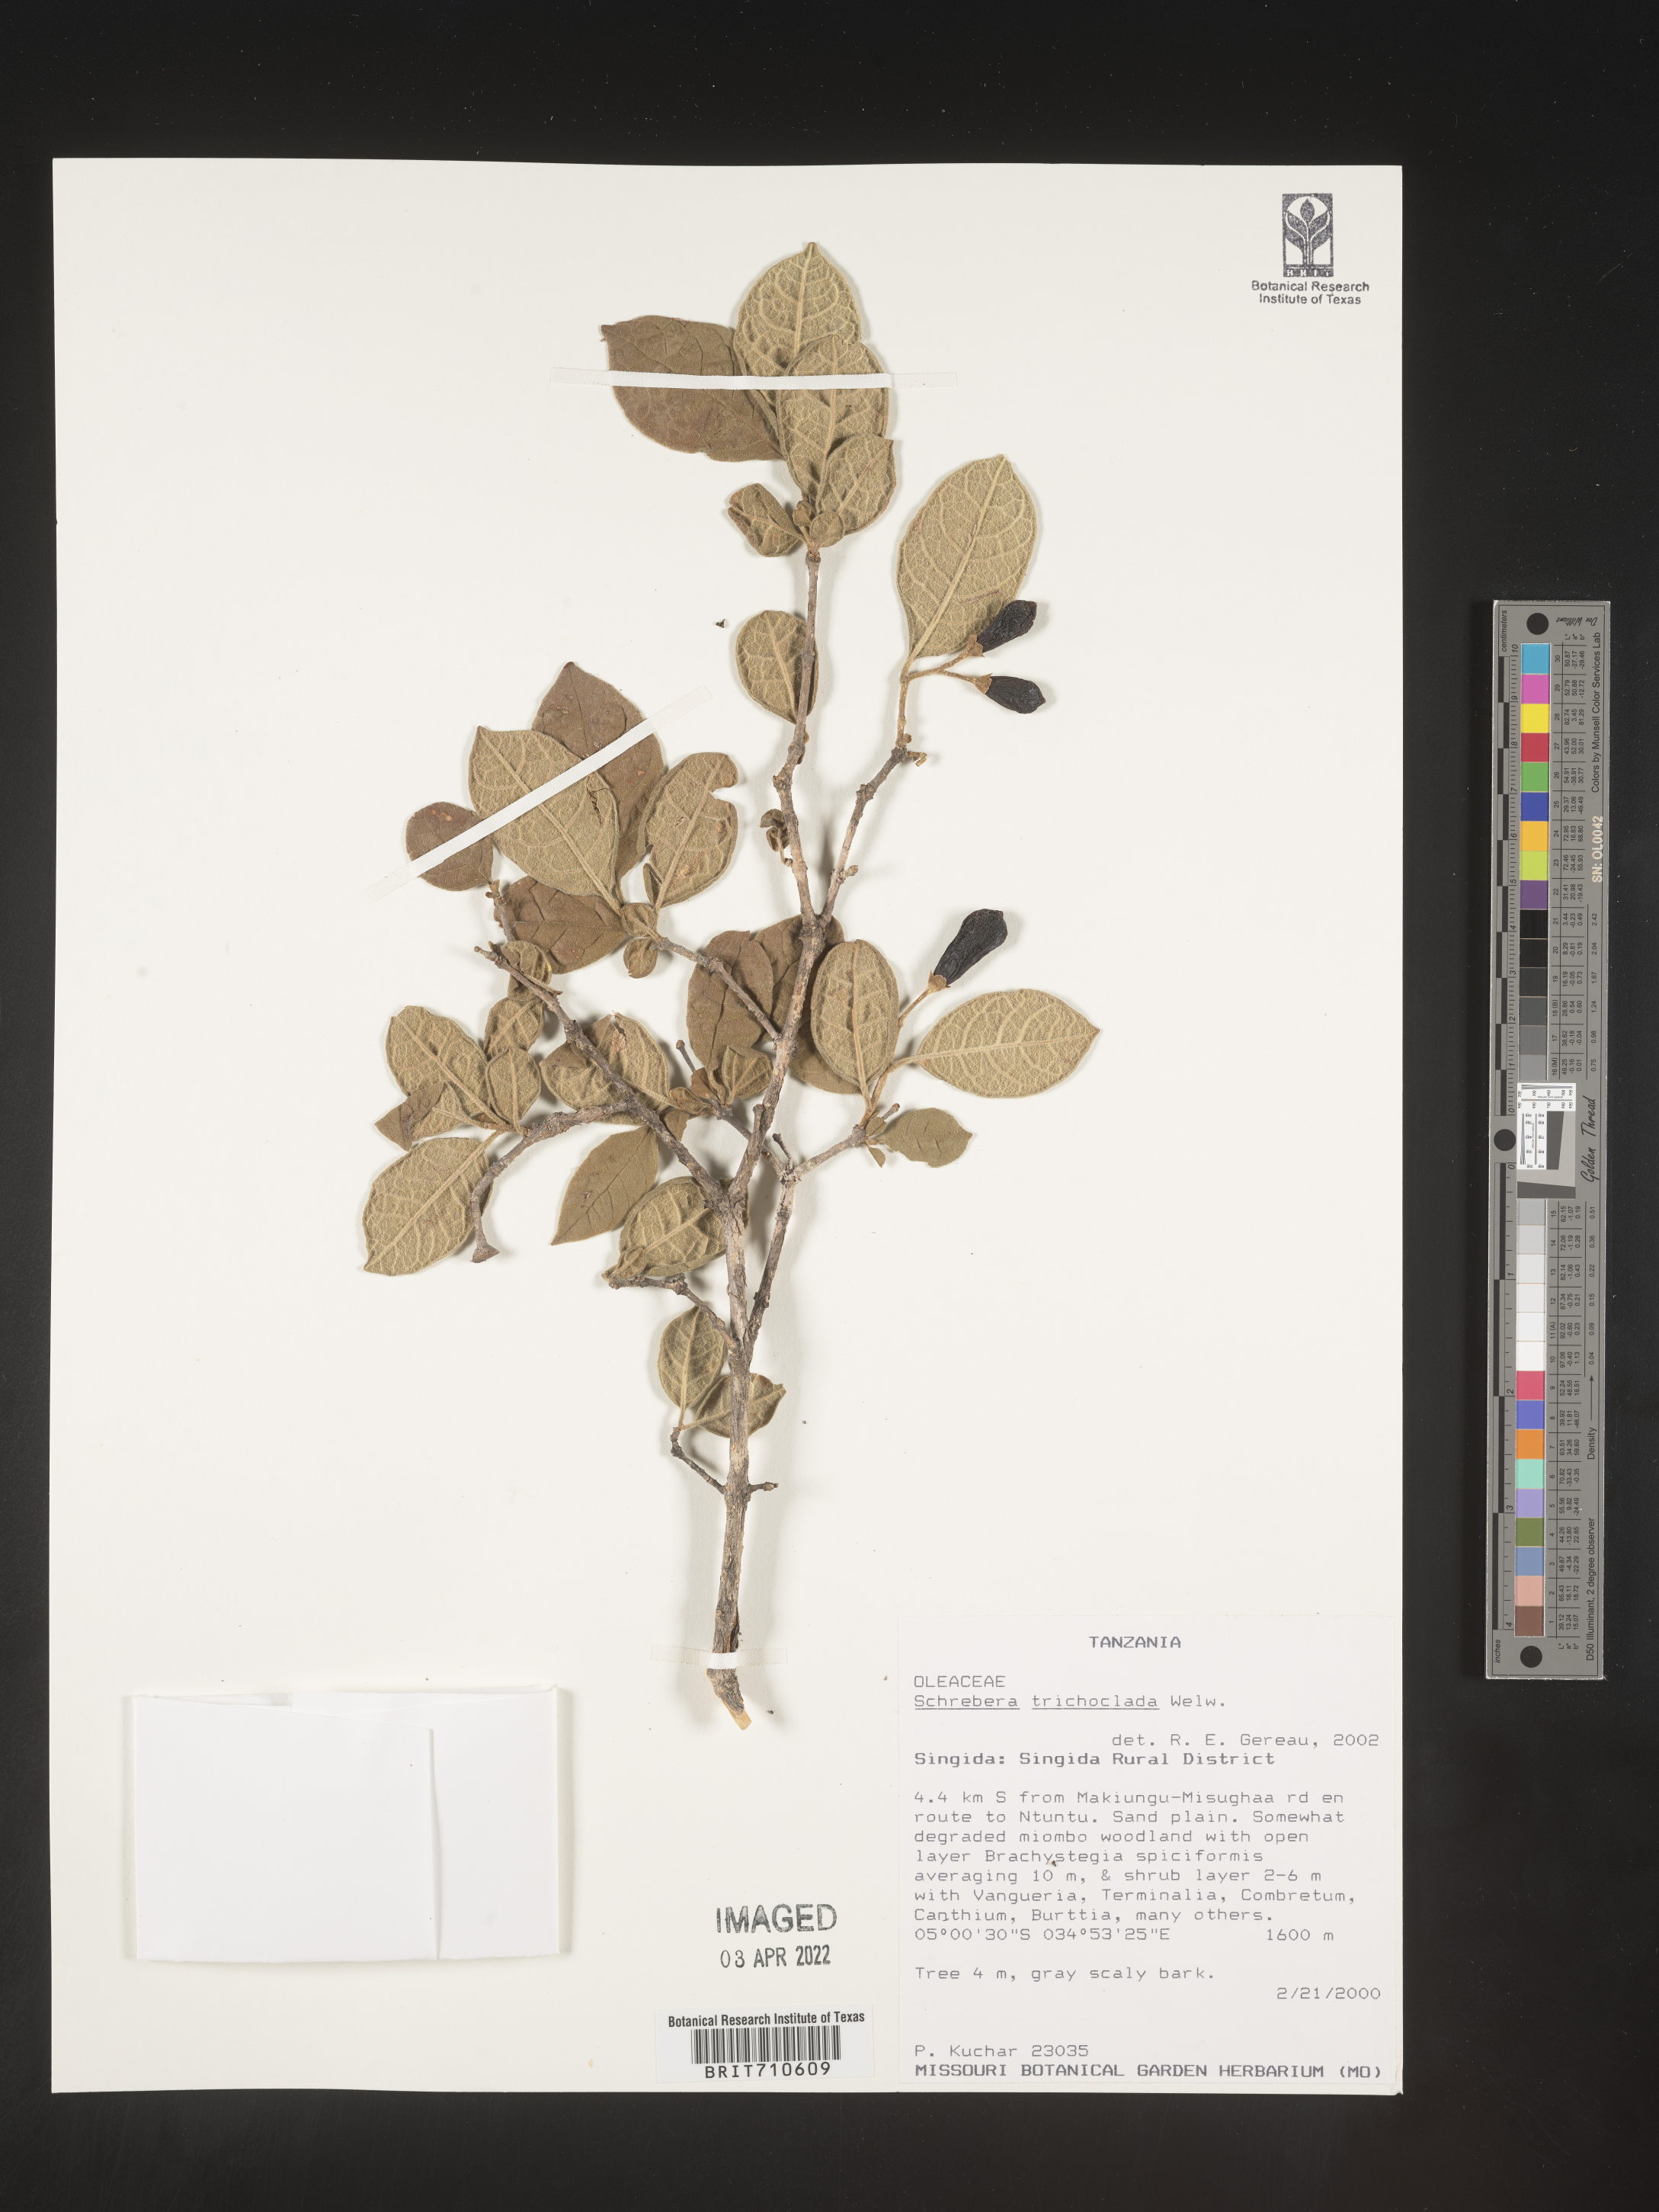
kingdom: Plantae
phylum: Tracheophyta
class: Magnoliopsida
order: Lamiales
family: Oleaceae
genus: Schrebera
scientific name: Schrebera
